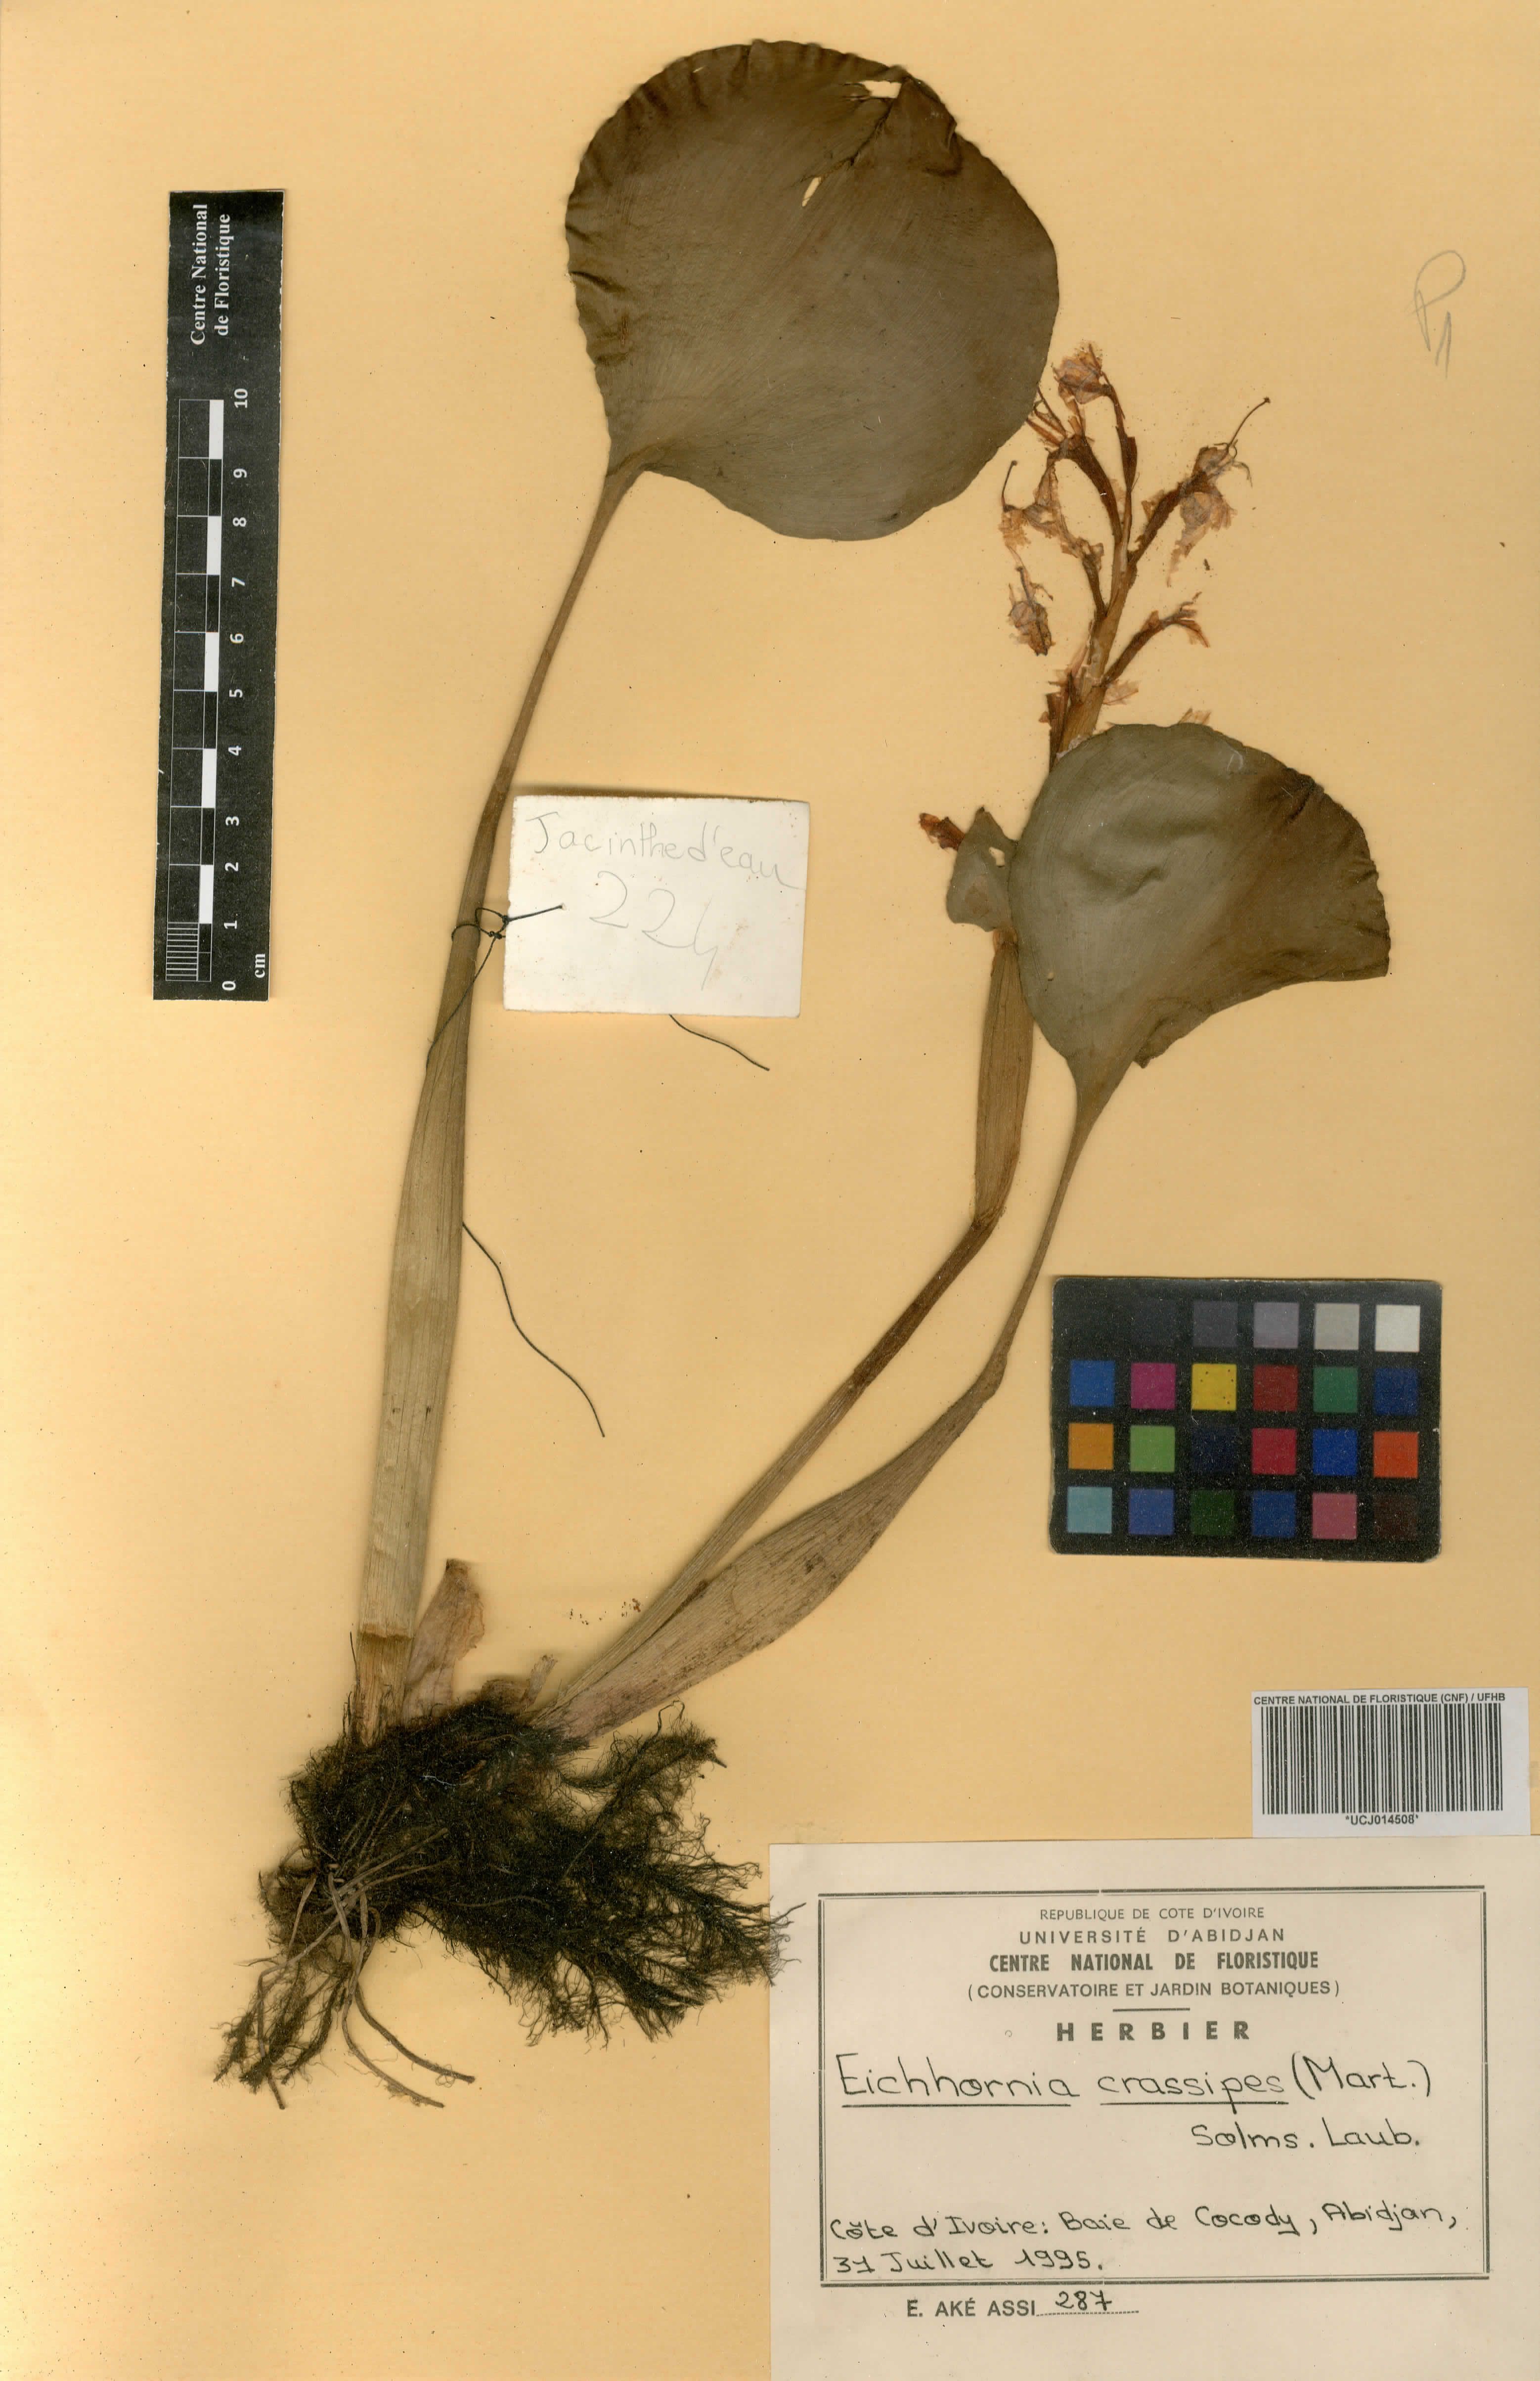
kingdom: Plantae
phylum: Tracheophyta
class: Liliopsida
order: Commelinales
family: Pontederiaceae
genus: Pontederia
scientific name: Pontederia crassipes
